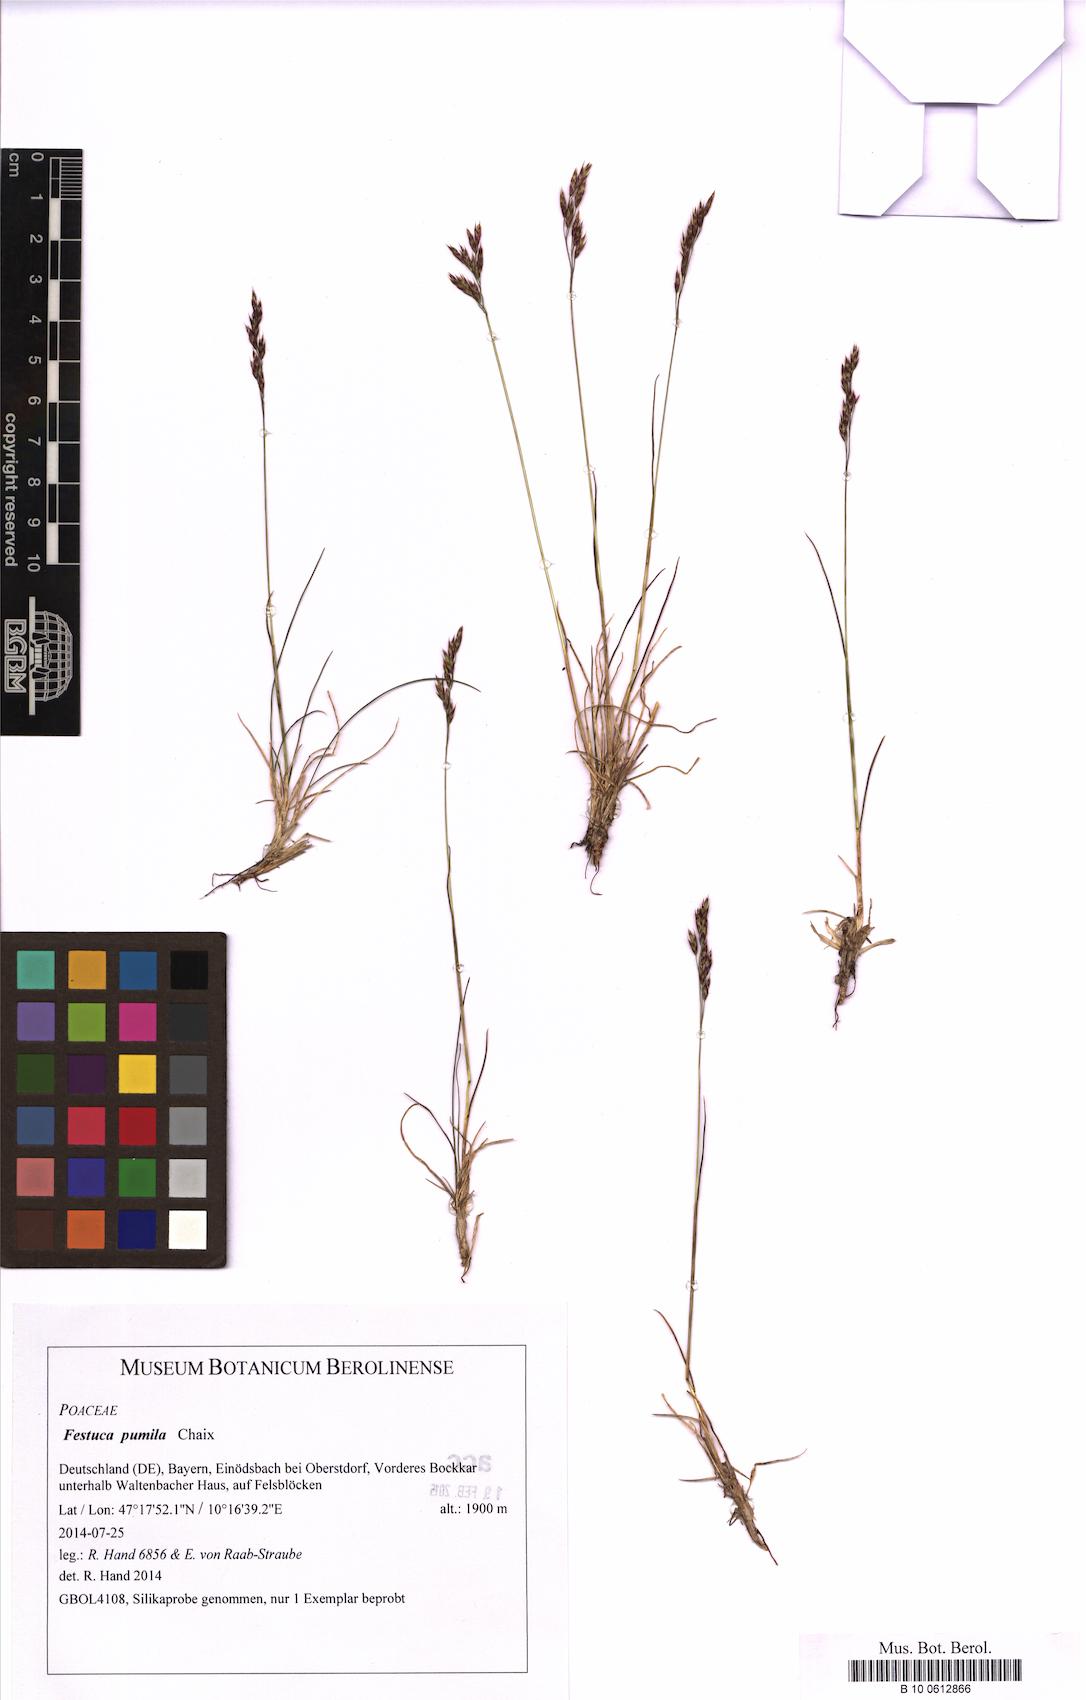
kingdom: Plantae
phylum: Tracheophyta
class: Liliopsida
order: Poales
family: Poaceae
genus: Festuca
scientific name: Festuca quadriflora
